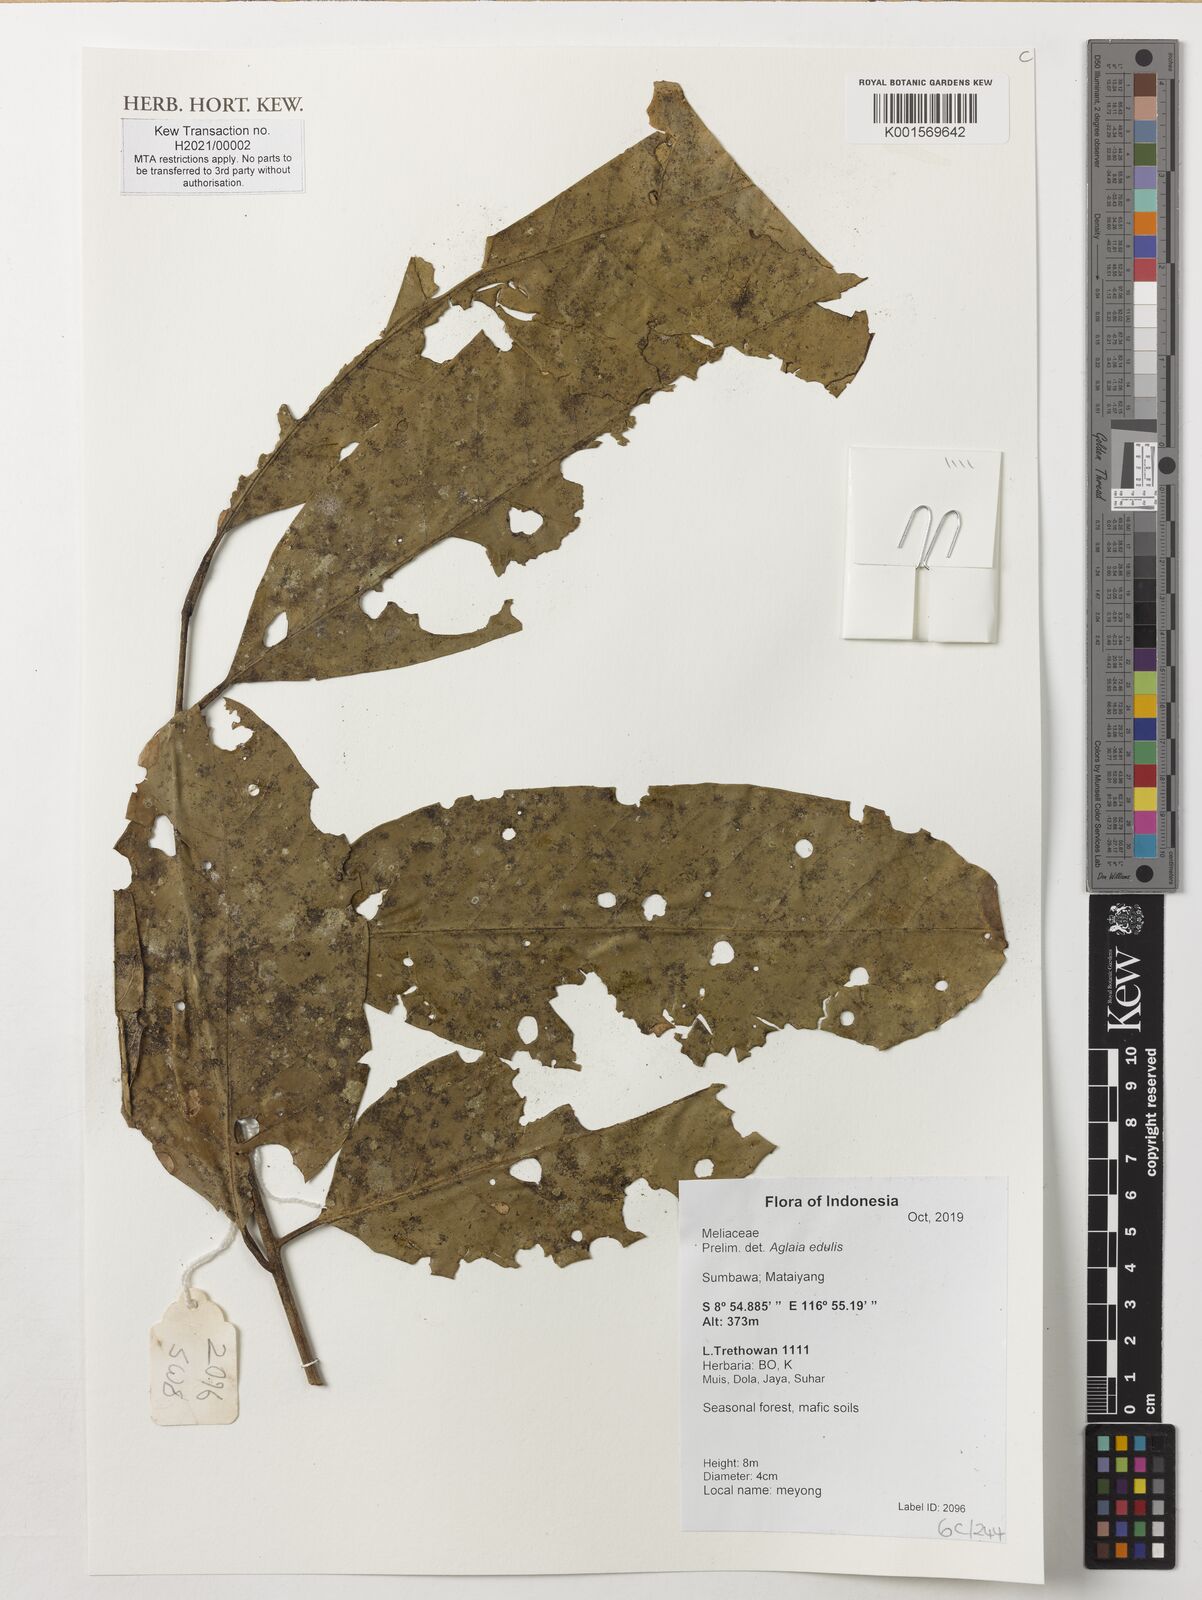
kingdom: Plantae
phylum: Tracheophyta
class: Magnoliopsida
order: Sapindales
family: Meliaceae
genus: Aglaia
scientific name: Aglaia edulis
